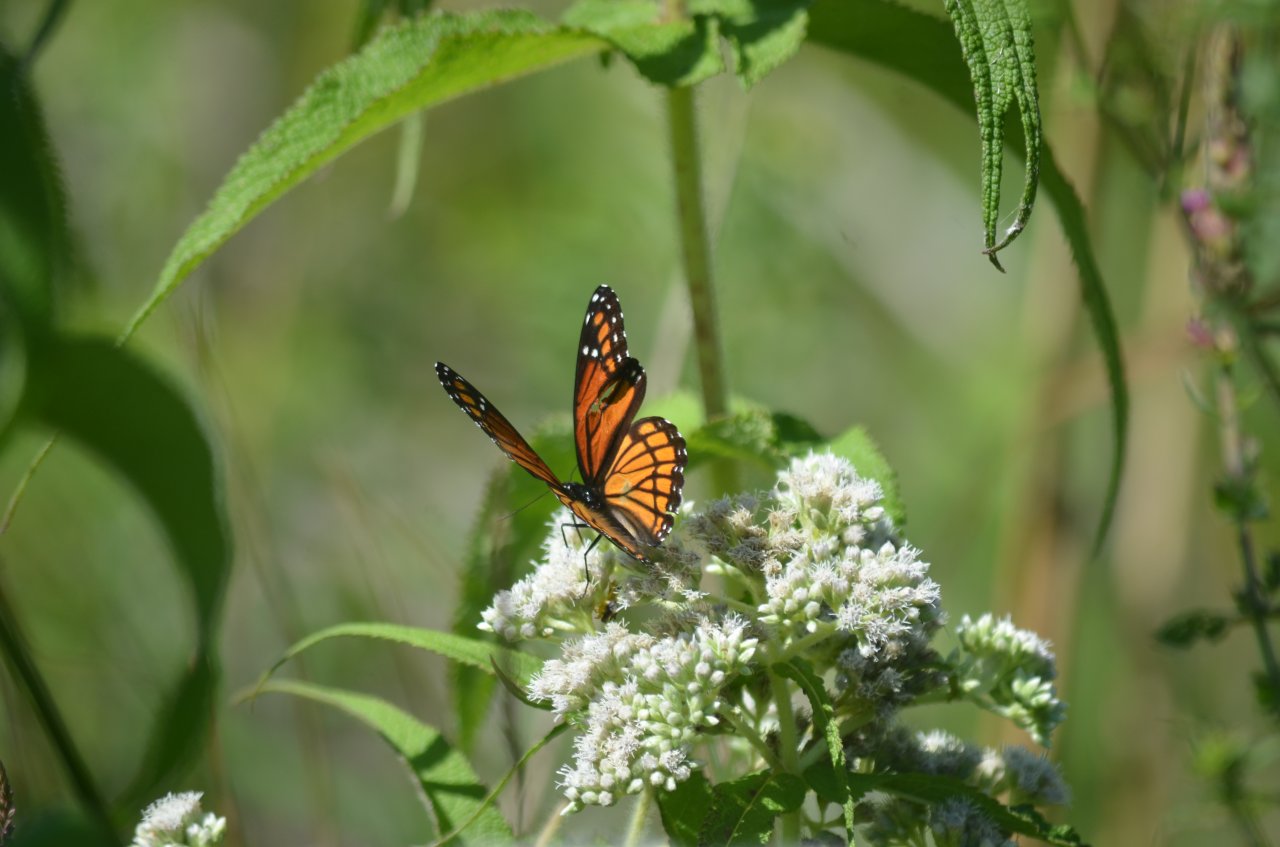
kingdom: Animalia
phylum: Arthropoda
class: Insecta
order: Lepidoptera
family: Nymphalidae
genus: Limenitis
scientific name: Limenitis archippus
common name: Viceroy
